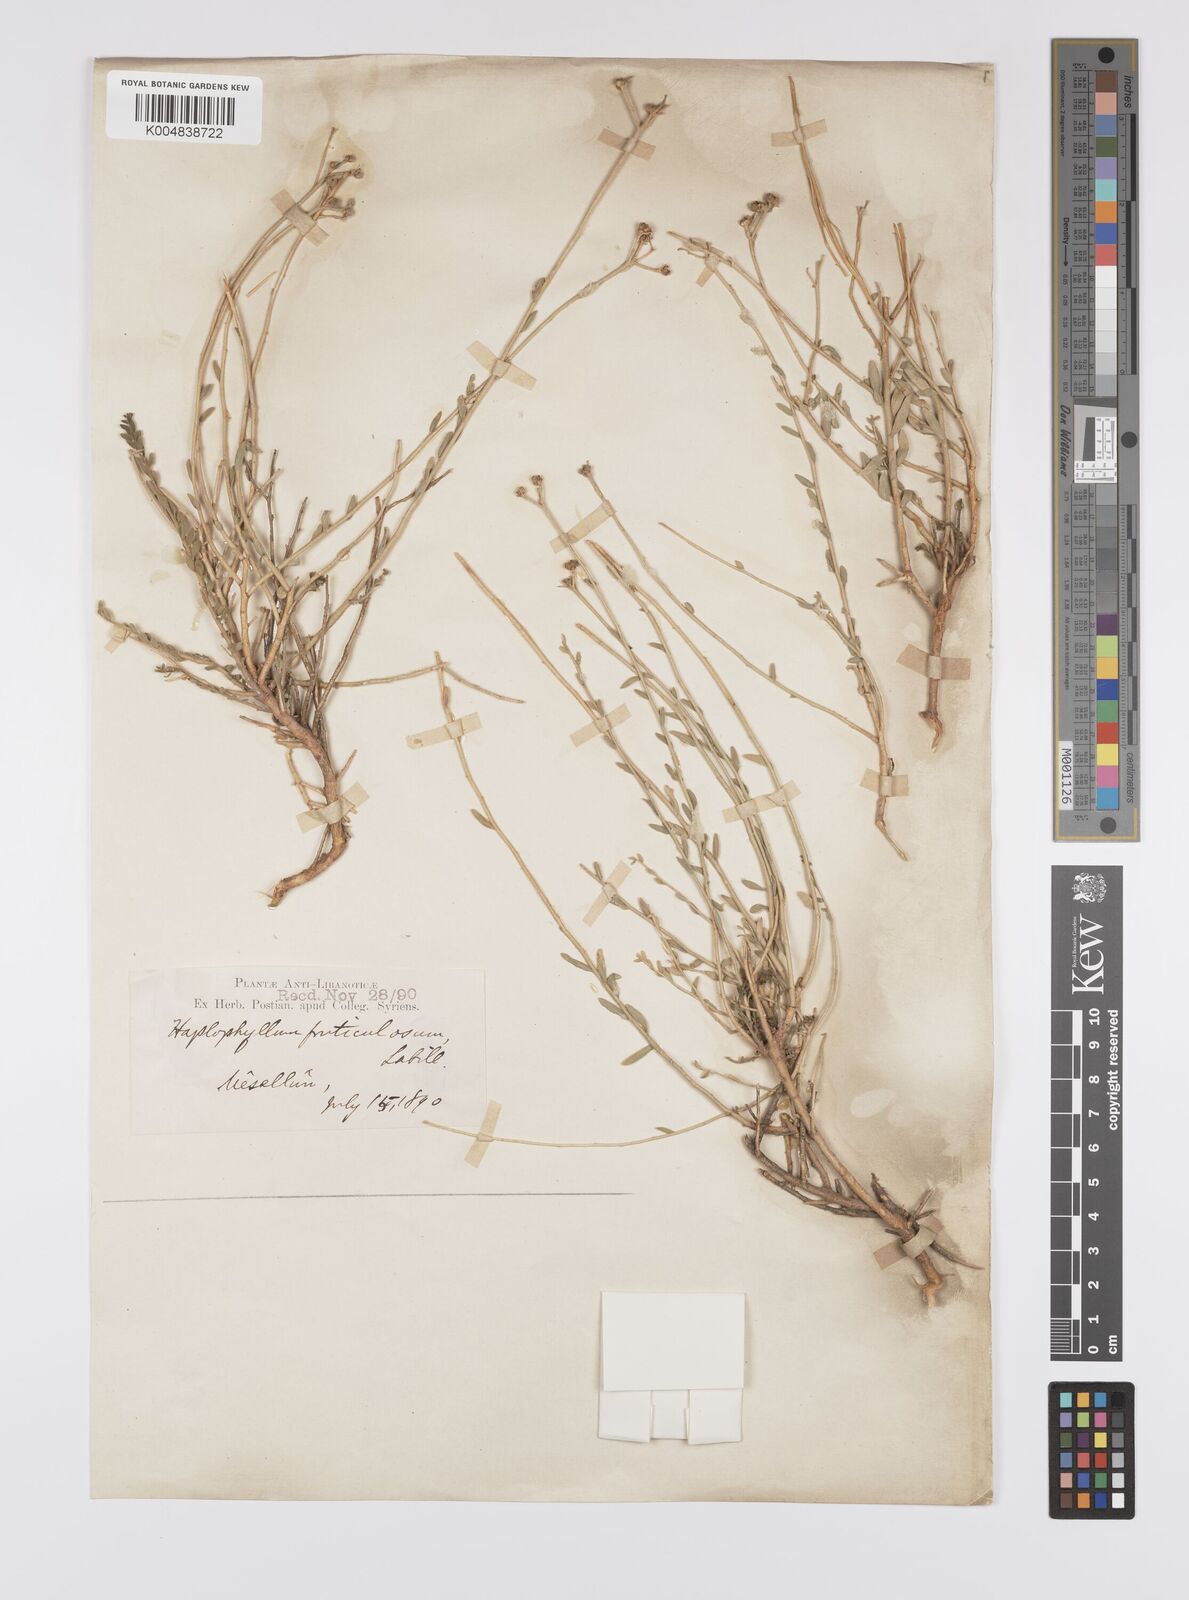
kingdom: Plantae
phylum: Tracheophyta
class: Magnoliopsida
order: Sapindales
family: Rutaceae
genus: Haplophyllum
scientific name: Haplophyllum fruticulosum
